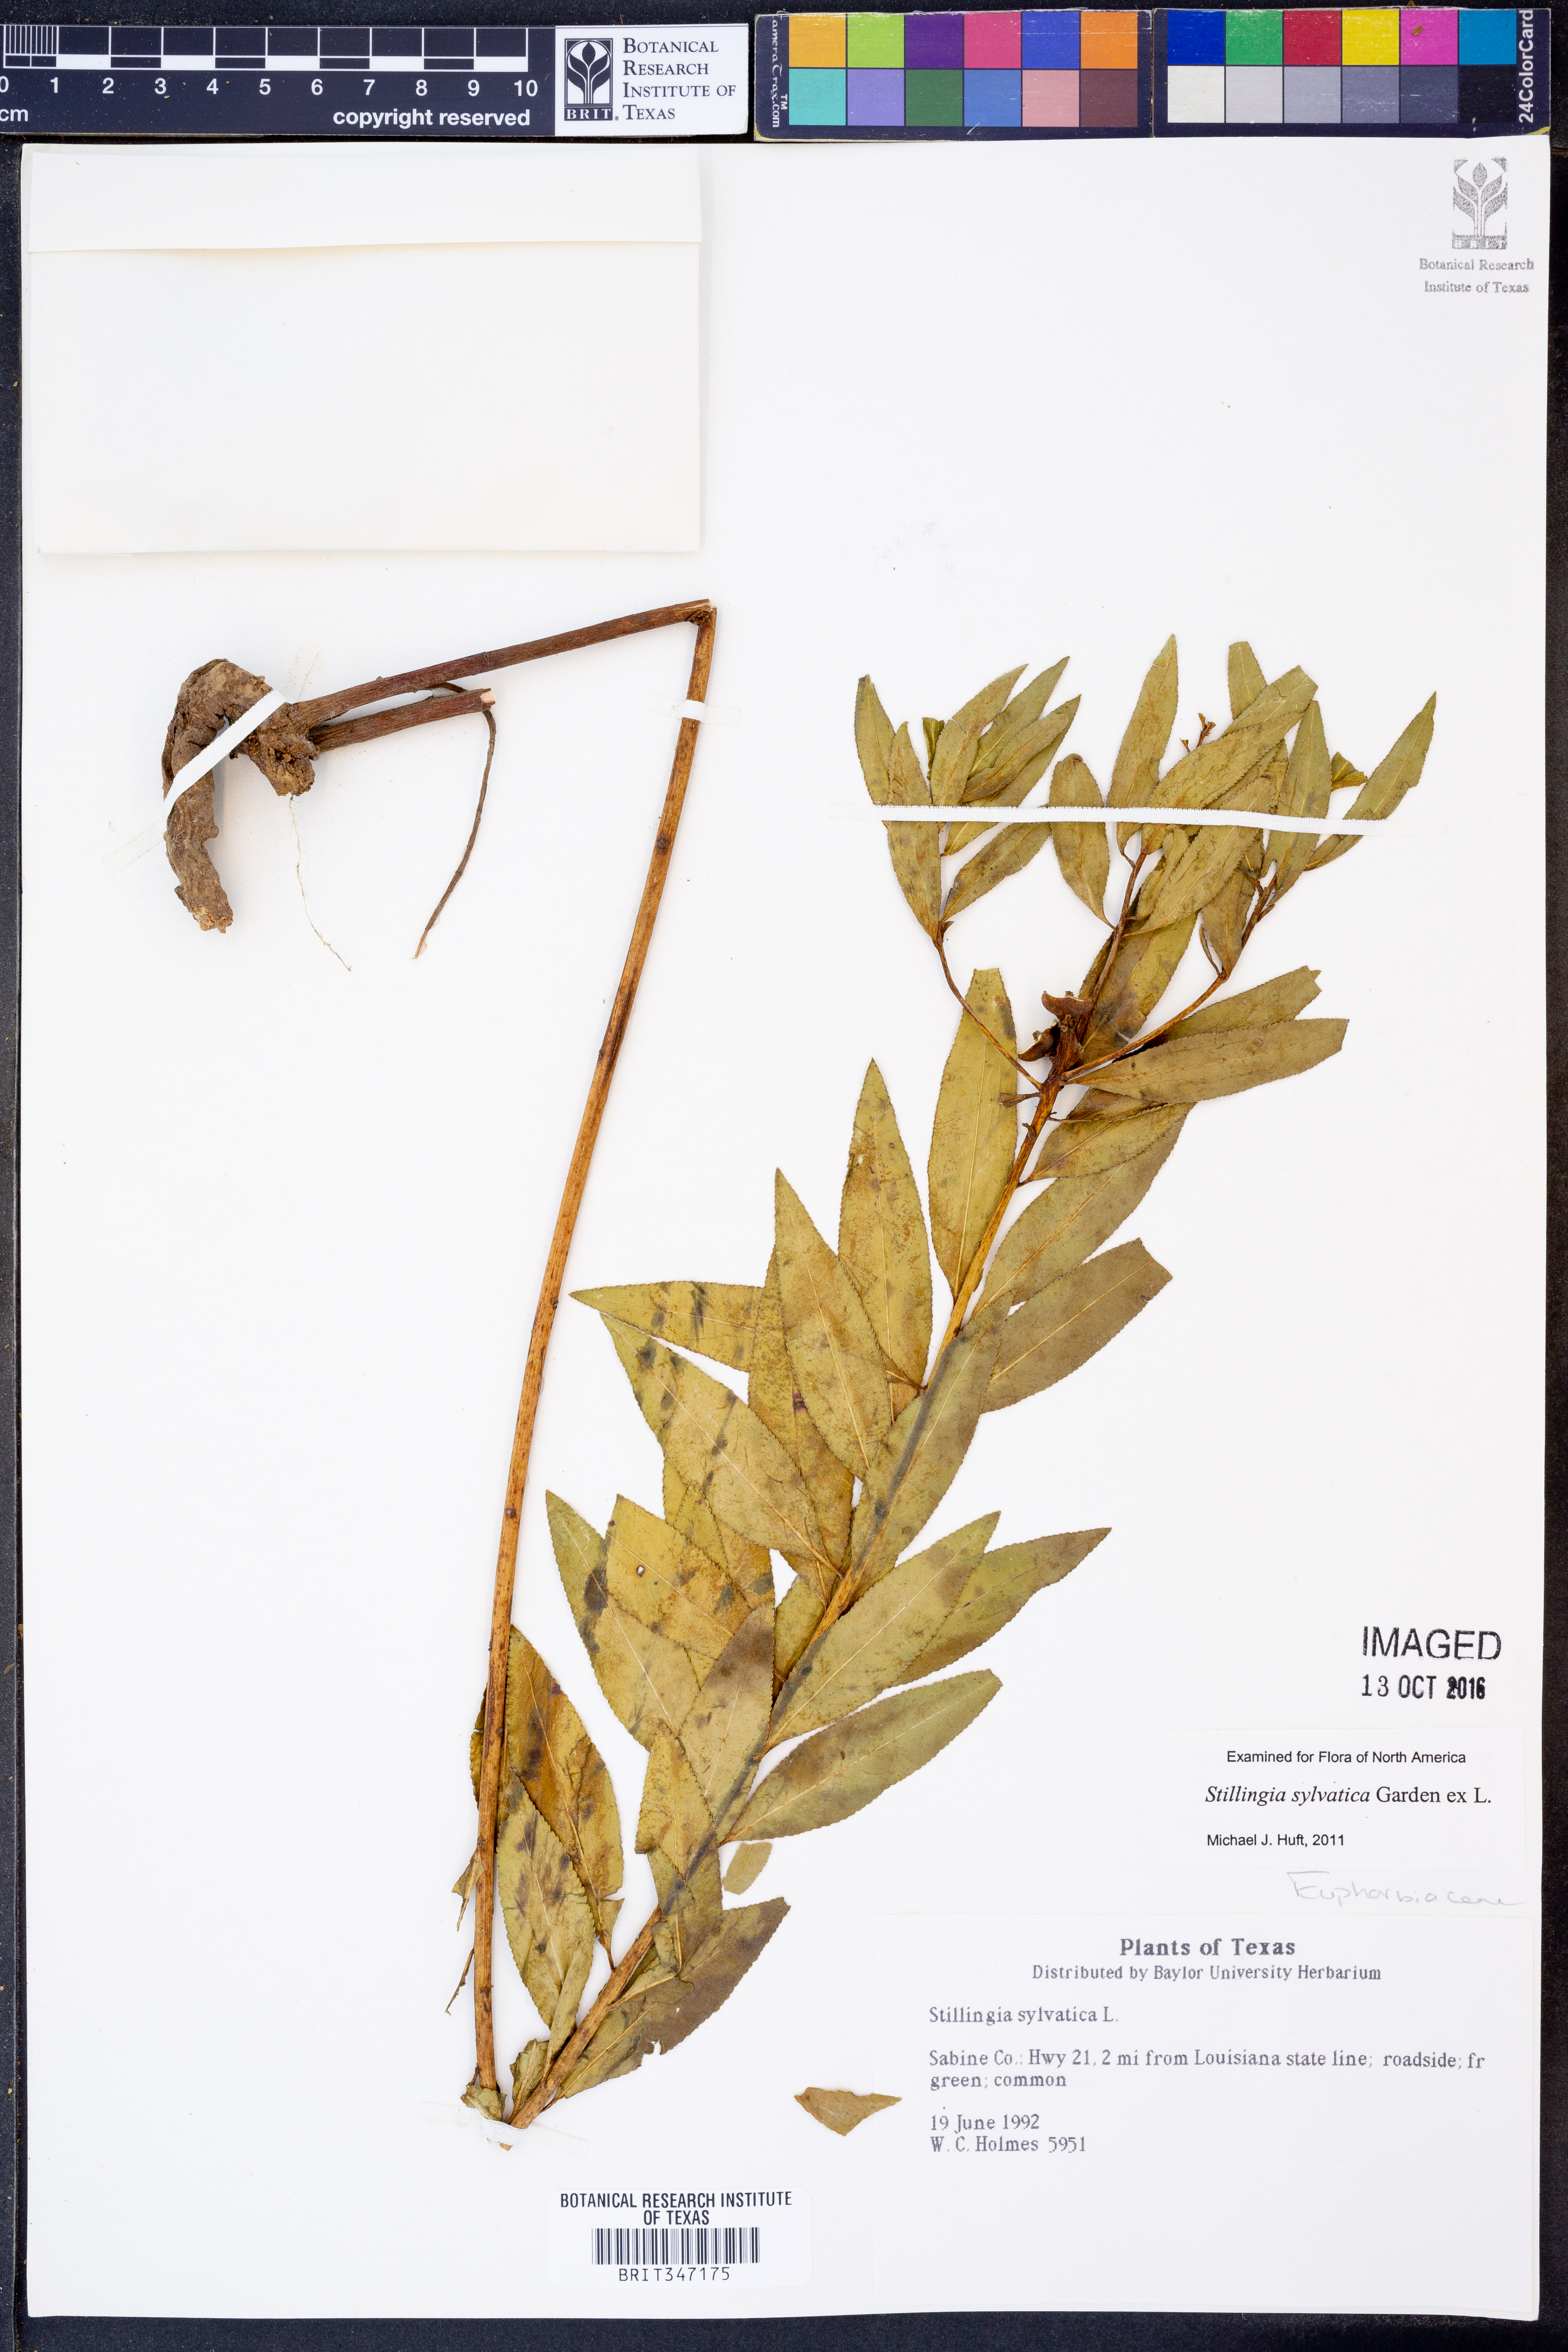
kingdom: Plantae
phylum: Tracheophyta
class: Magnoliopsida
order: Malpighiales
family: Euphorbiaceae
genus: Stillingia
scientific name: Stillingia sylvatica
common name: Queen's-delight
